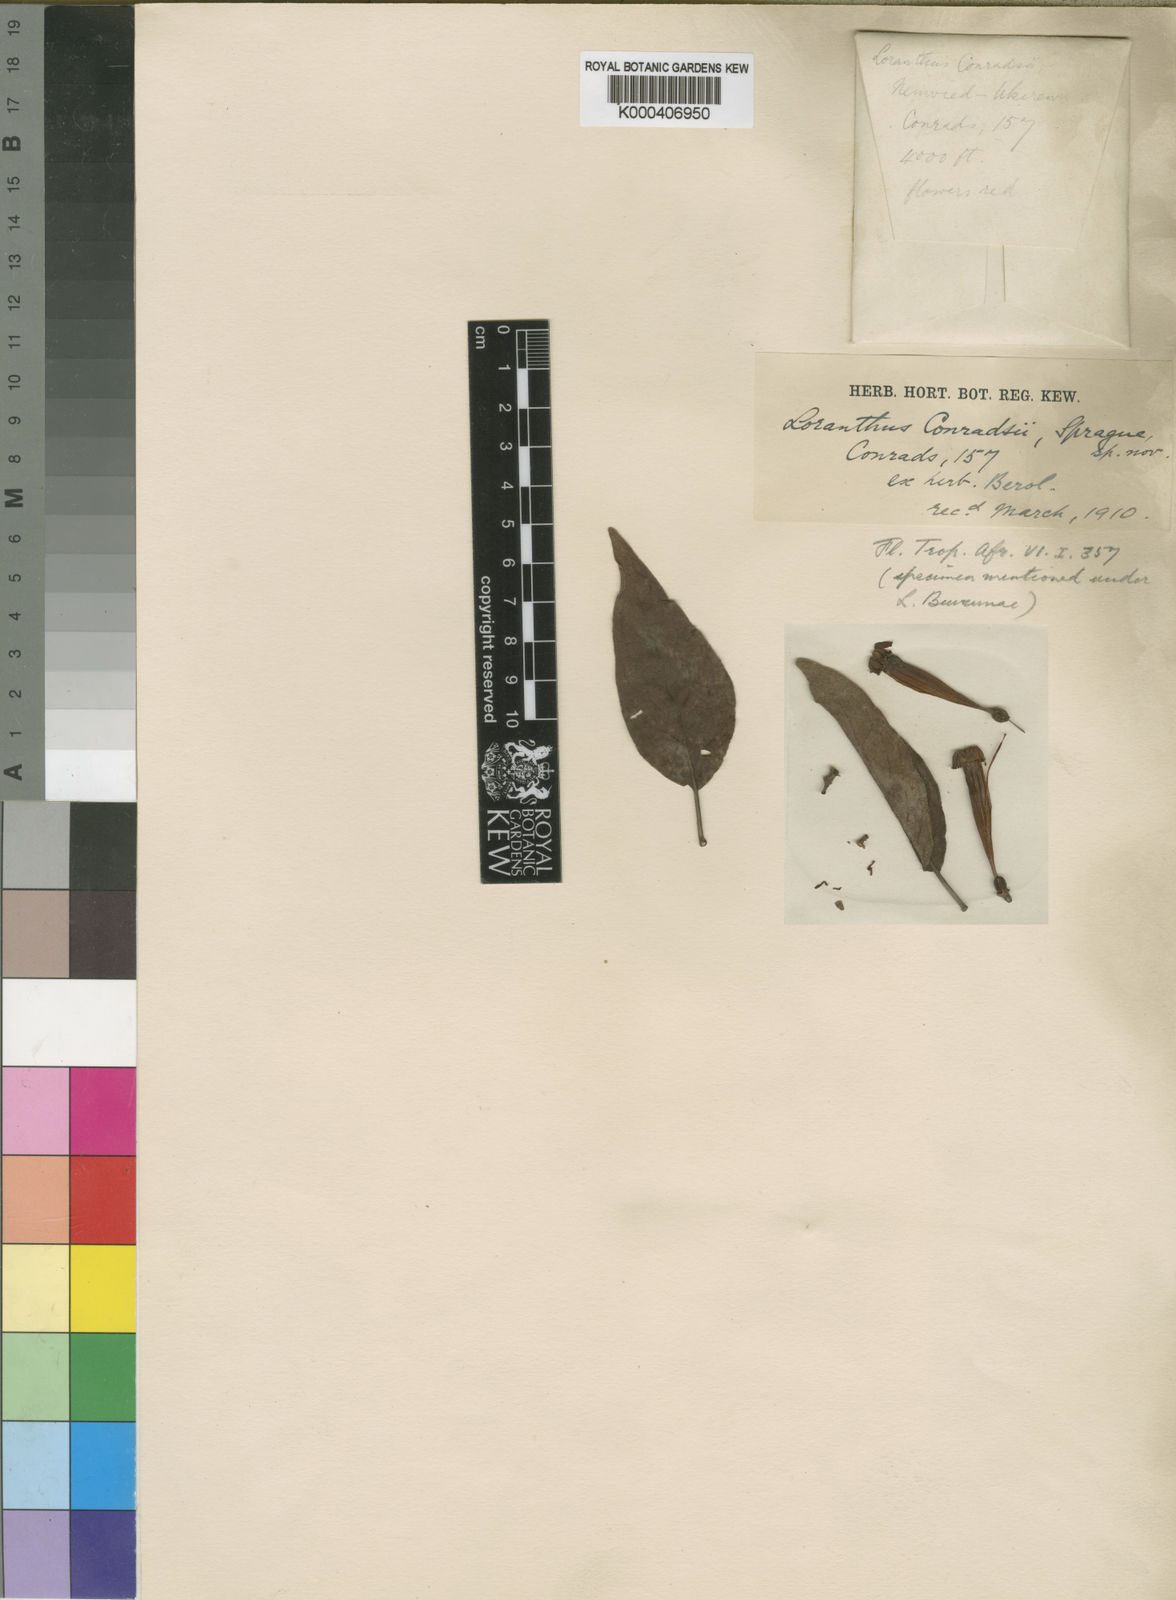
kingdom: Plantae
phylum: Tracheophyta
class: Magnoliopsida
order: Santalales
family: Loranthaceae
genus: Tapinanthus
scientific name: Tapinanthus buvumae
